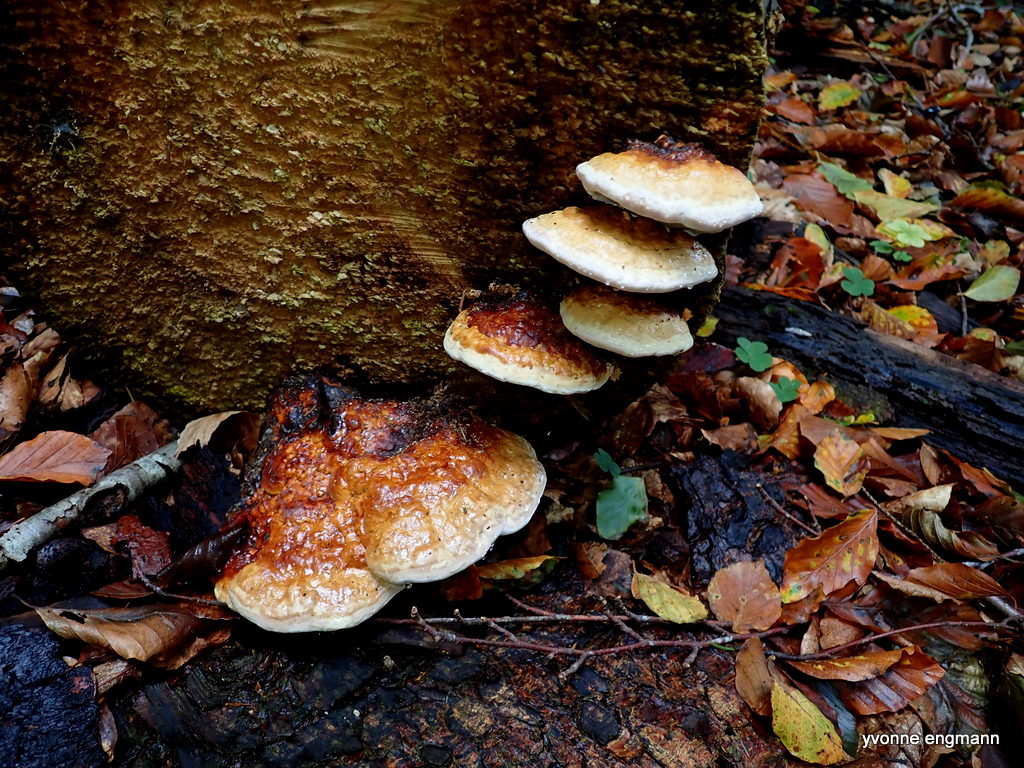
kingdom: Fungi
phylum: Basidiomycota
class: Agaricomycetes
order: Polyporales
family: Fomitopsidaceae
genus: Fomitopsis
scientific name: Fomitopsis pinicola
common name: randbæltet hovporesvamp
